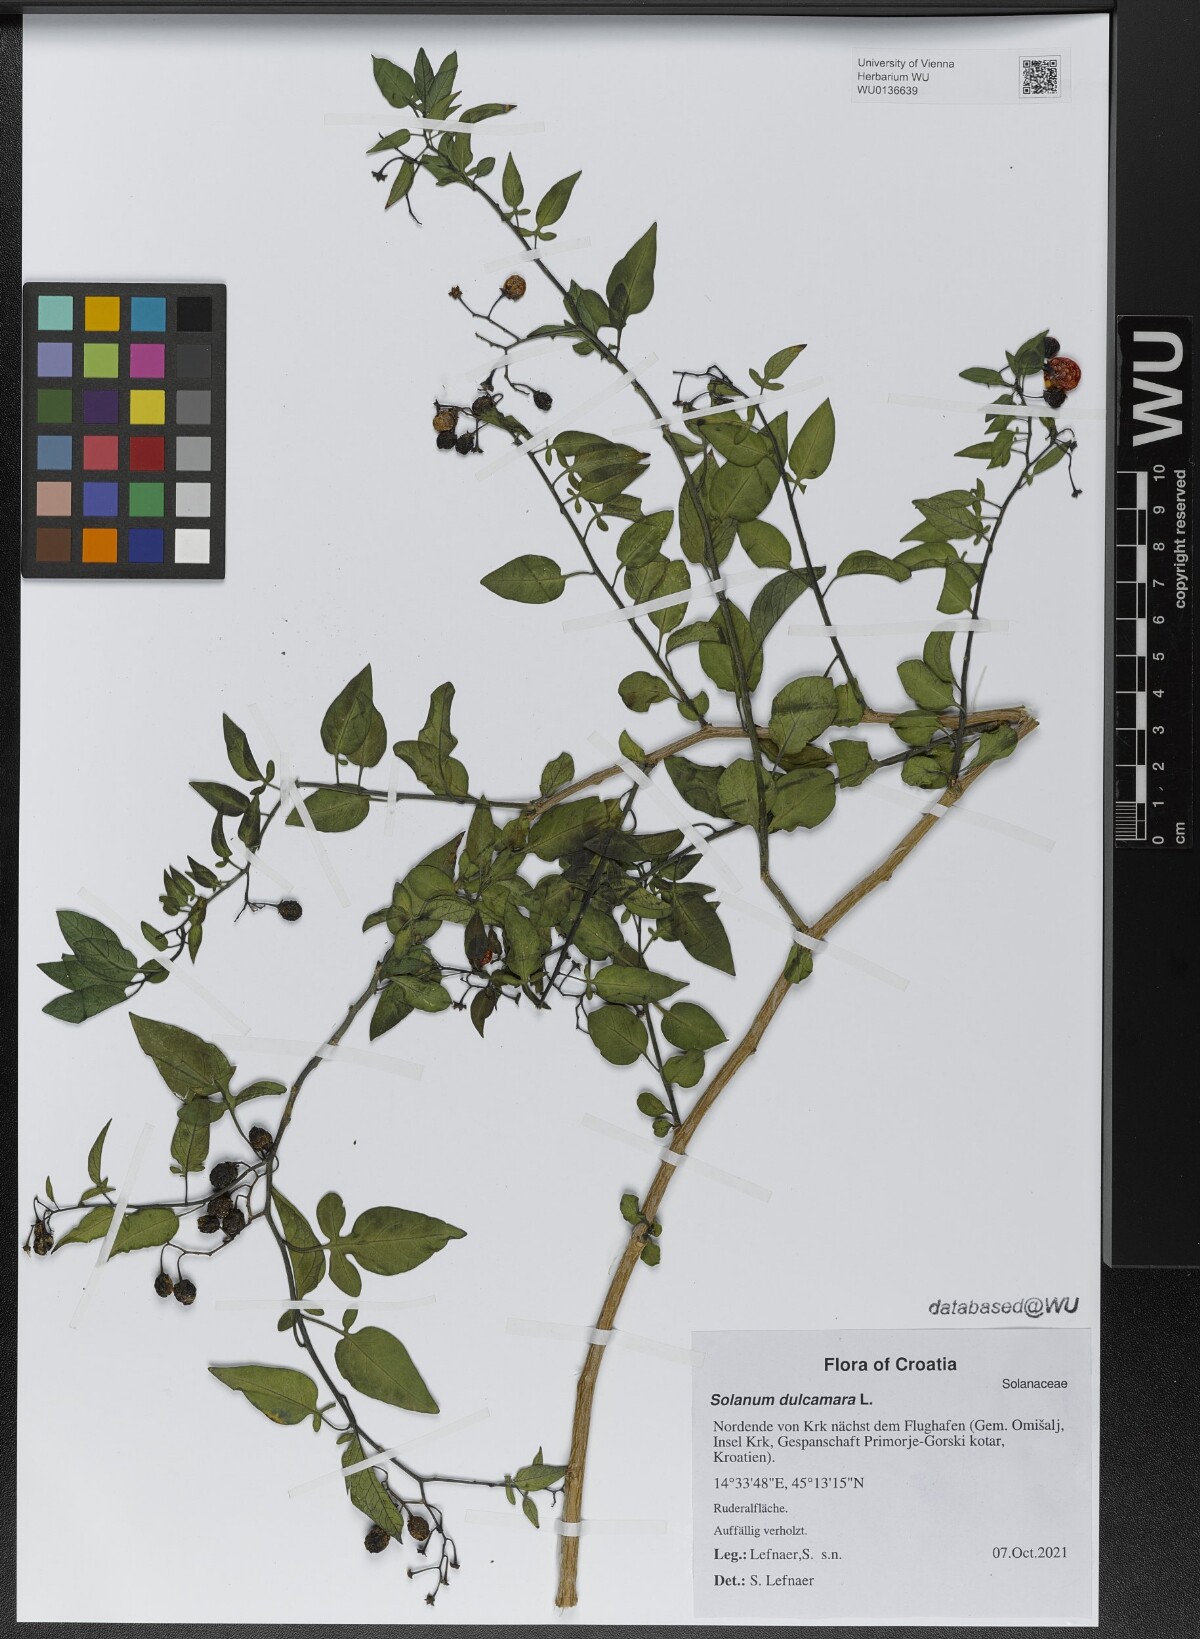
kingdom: Plantae
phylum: Tracheophyta
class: Magnoliopsida
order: Solanales
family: Solanaceae
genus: Solanum
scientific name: Solanum dulcamara
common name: Climbing nightshade
